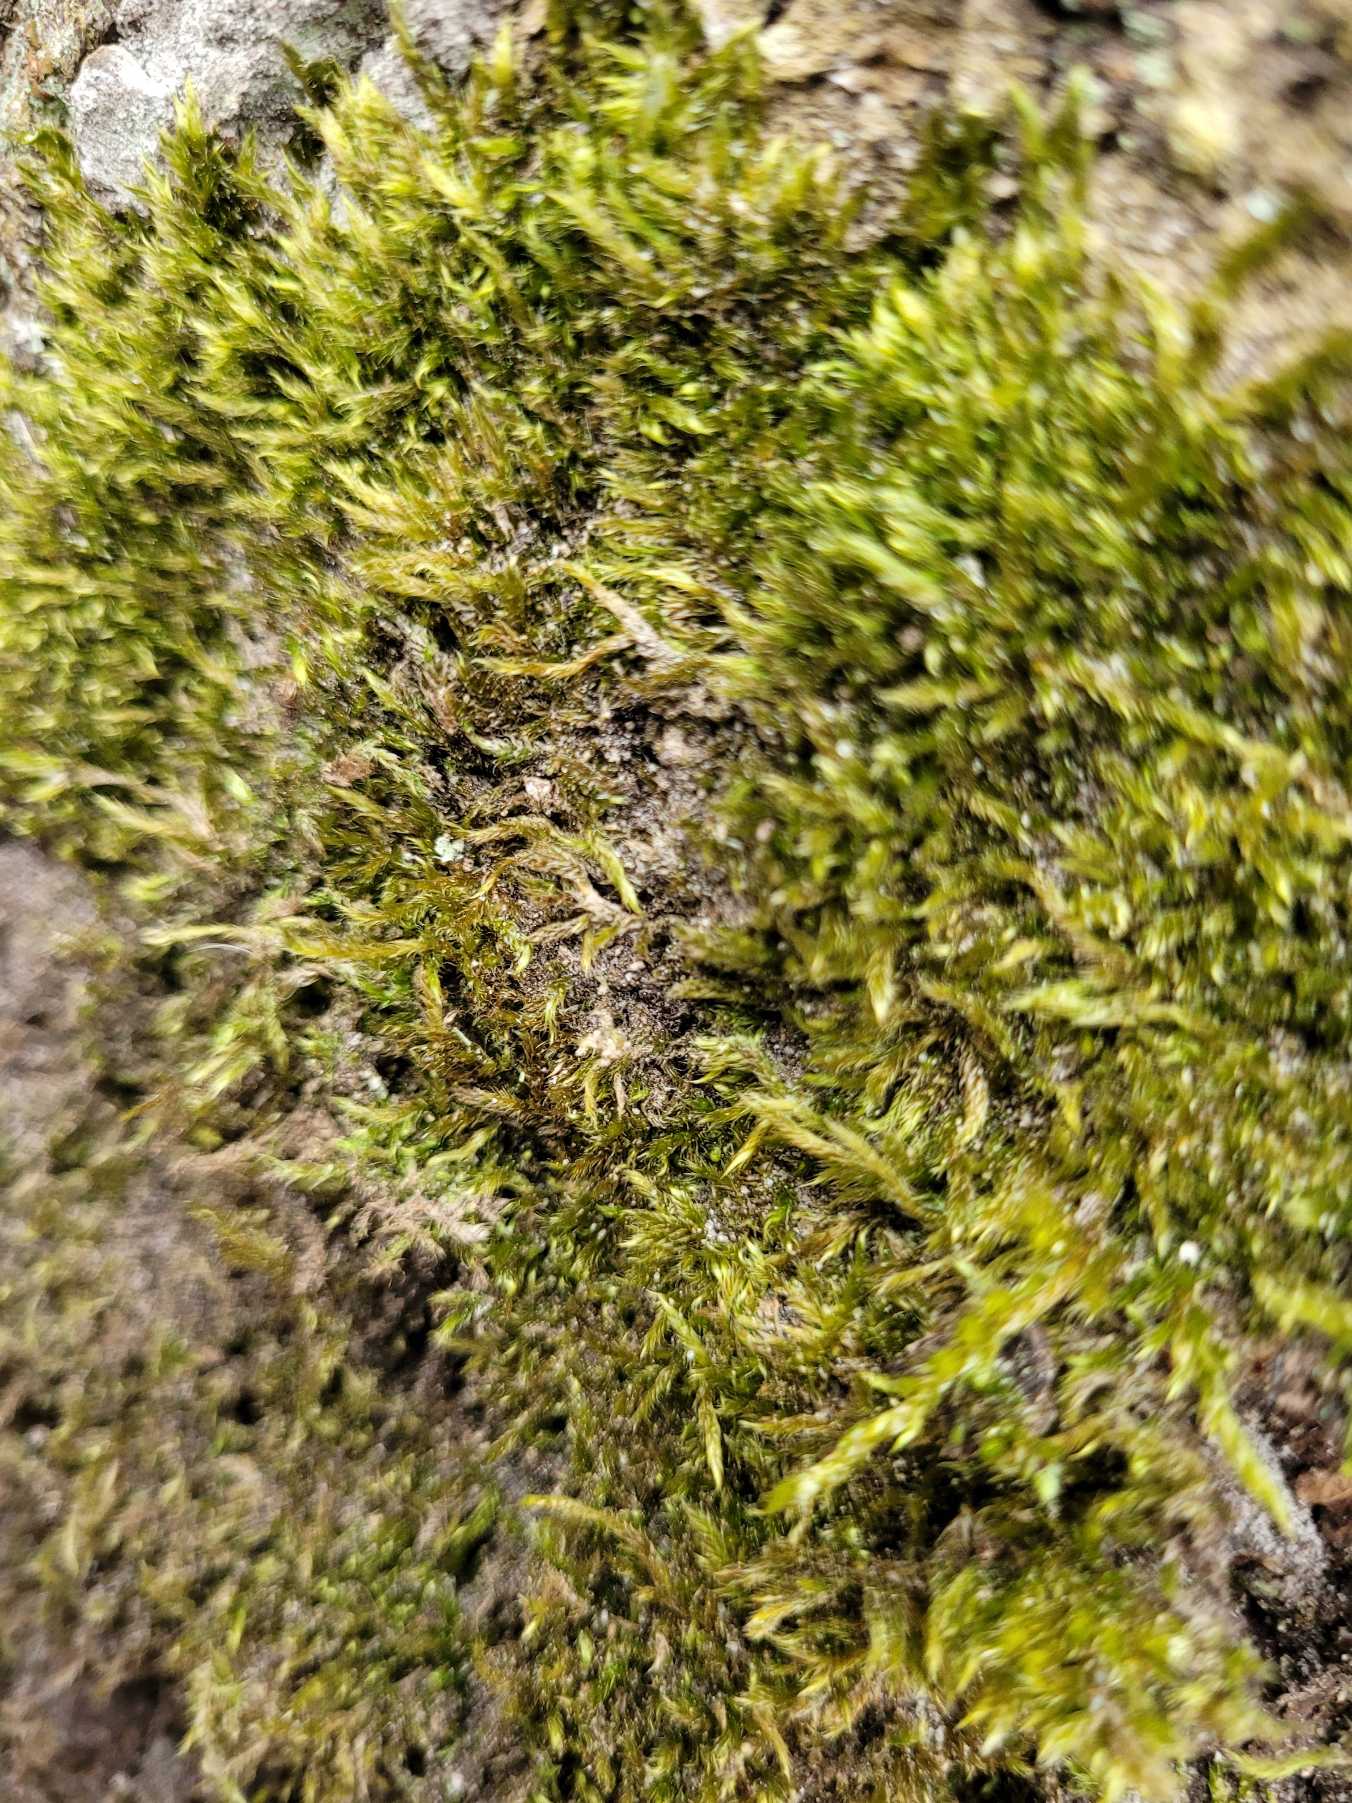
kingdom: Plantae
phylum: Bryophyta
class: Bryopsida
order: Hypnales
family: Hypnaceae
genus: Hypnum
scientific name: Hypnum
